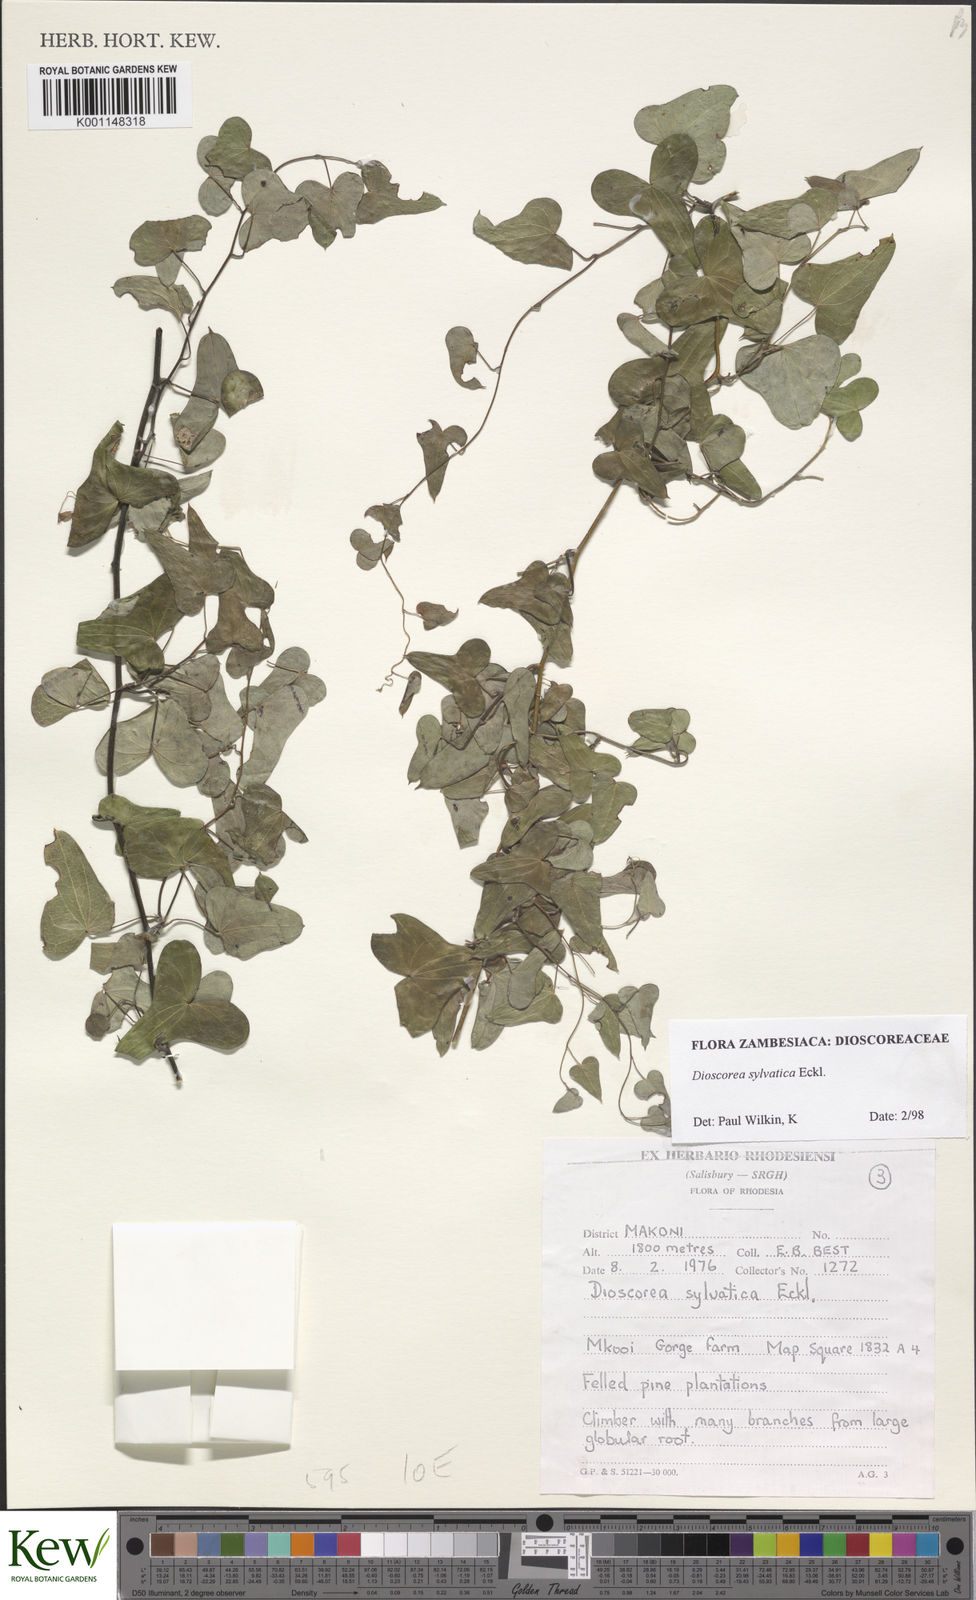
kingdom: Plantae
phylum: Tracheophyta
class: Liliopsida
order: Dioscoreales
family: Dioscoreaceae
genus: Dioscorea
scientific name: Dioscorea sylvatica
